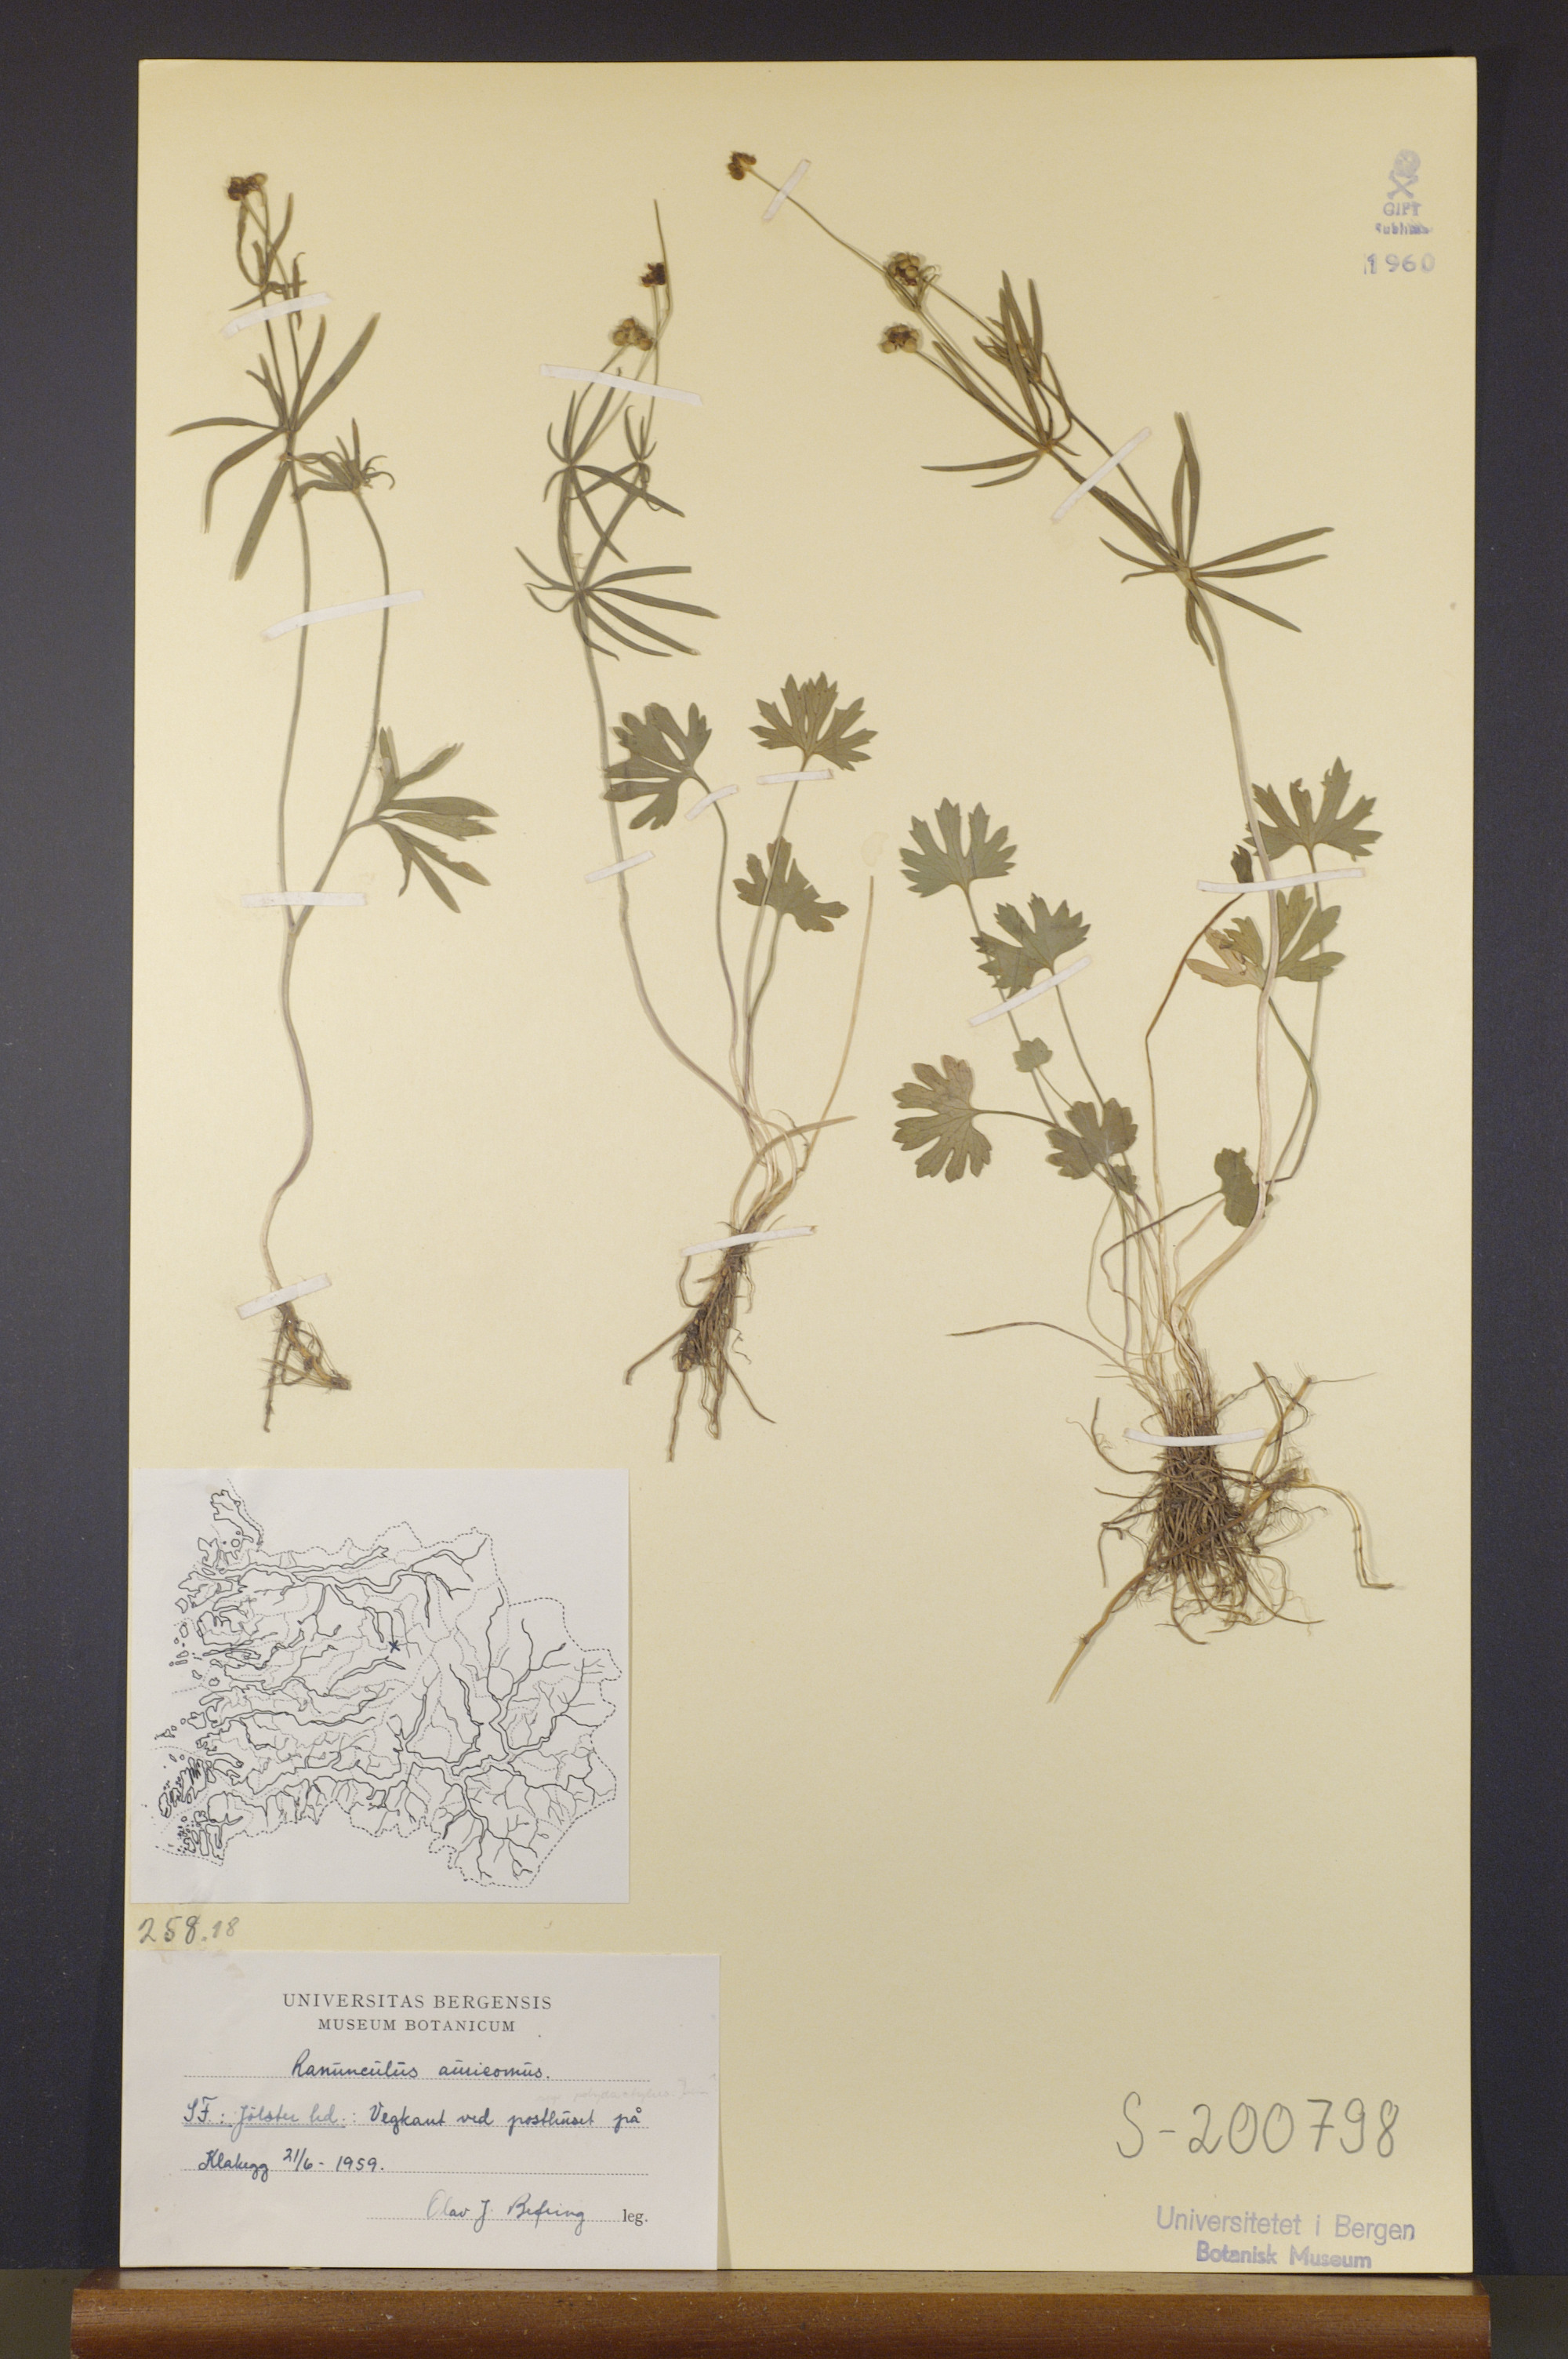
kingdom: Plantae
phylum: Tracheophyta
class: Magnoliopsida
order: Ranunculales
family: Ranunculaceae
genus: Ranunculus
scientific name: Ranunculus auricomus
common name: Goldilocks buttercup
